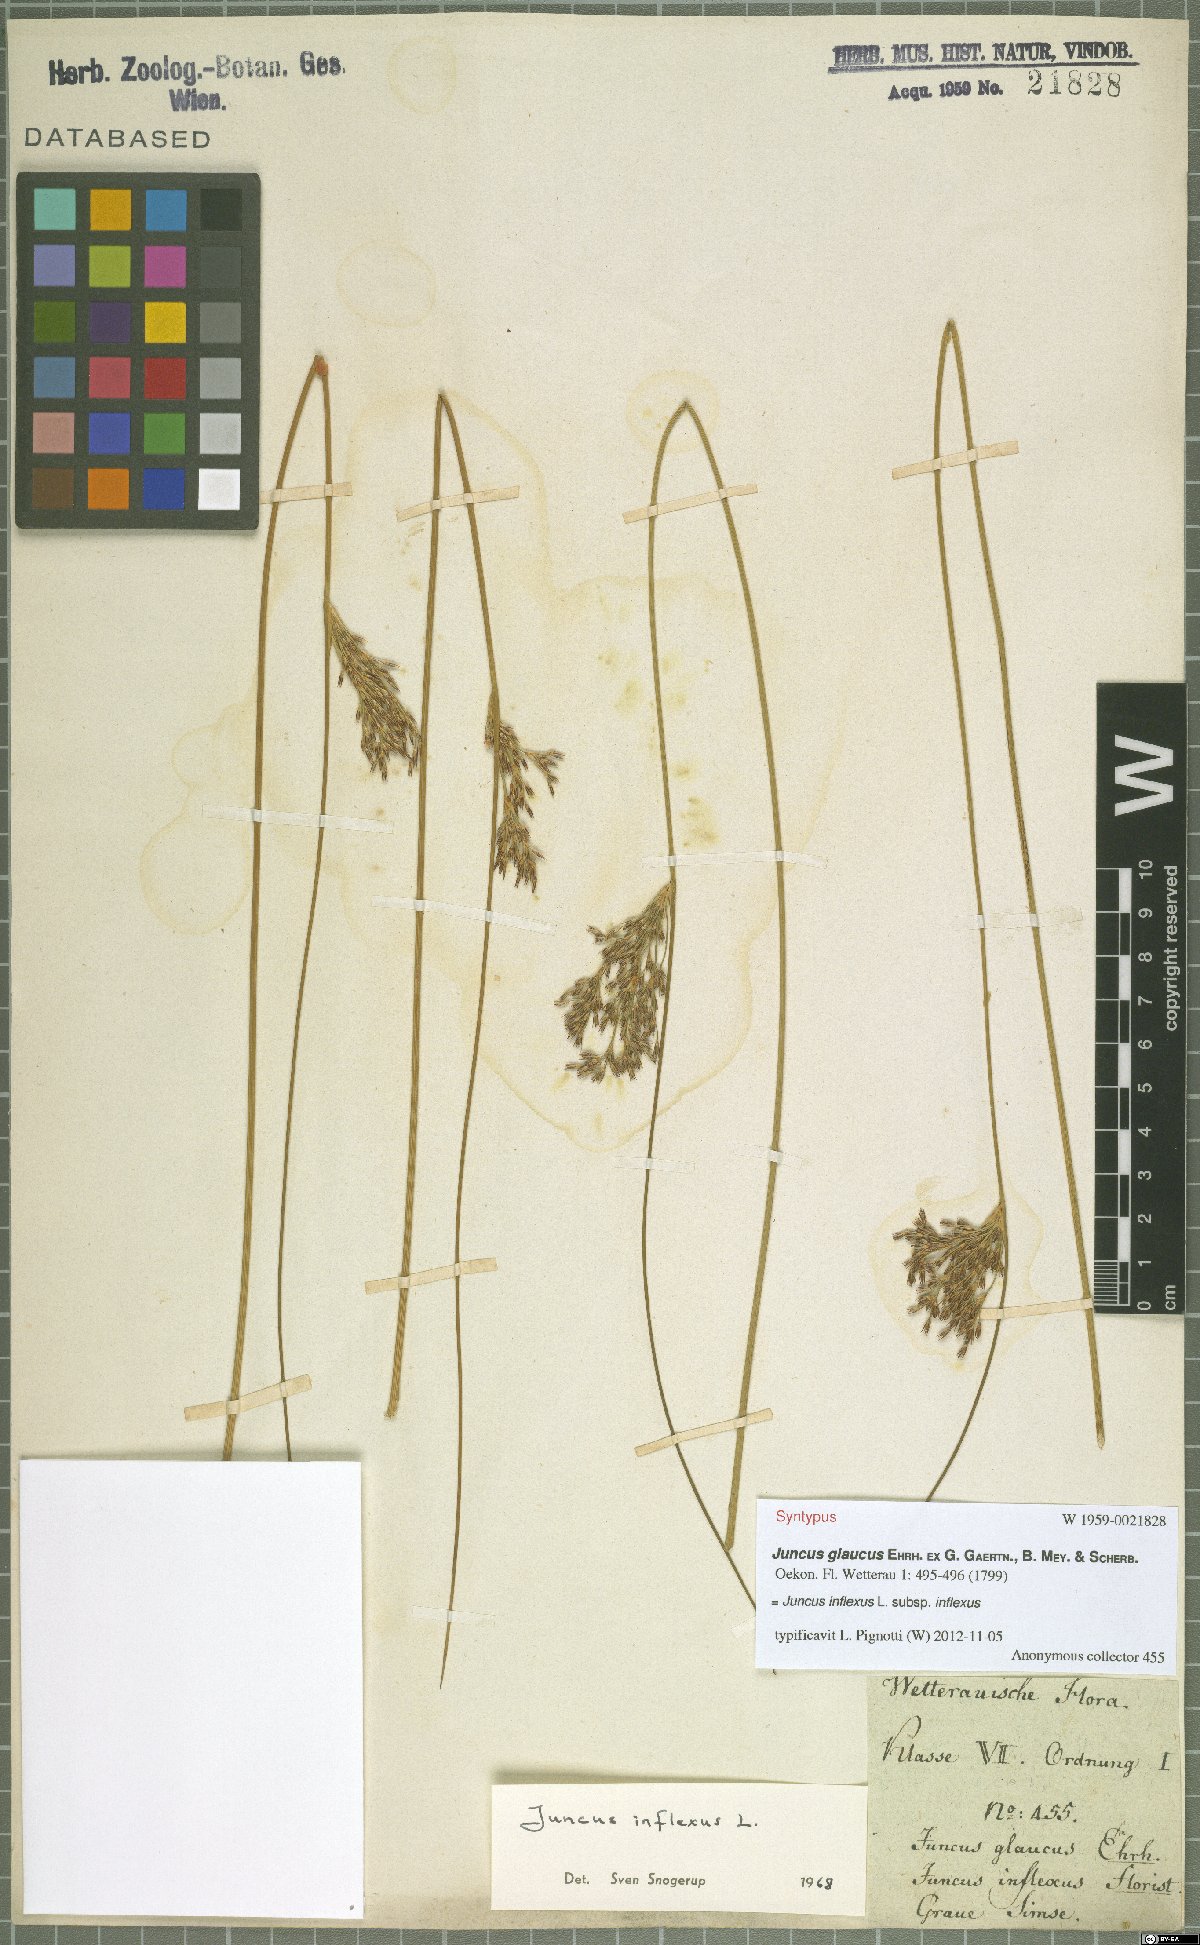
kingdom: Plantae
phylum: Tracheophyta
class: Liliopsida
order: Poales
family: Juncaceae
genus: Juncus
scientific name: Juncus inflexus
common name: Hard rush
